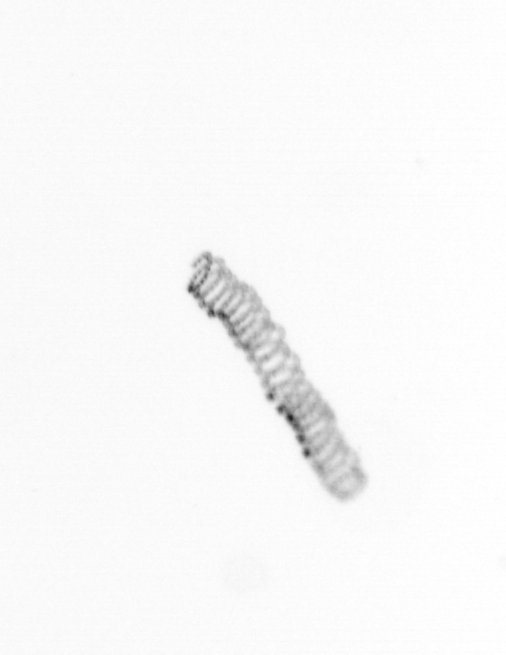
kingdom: Chromista
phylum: Ochrophyta
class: Bacillariophyceae
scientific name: Bacillariophyceae
